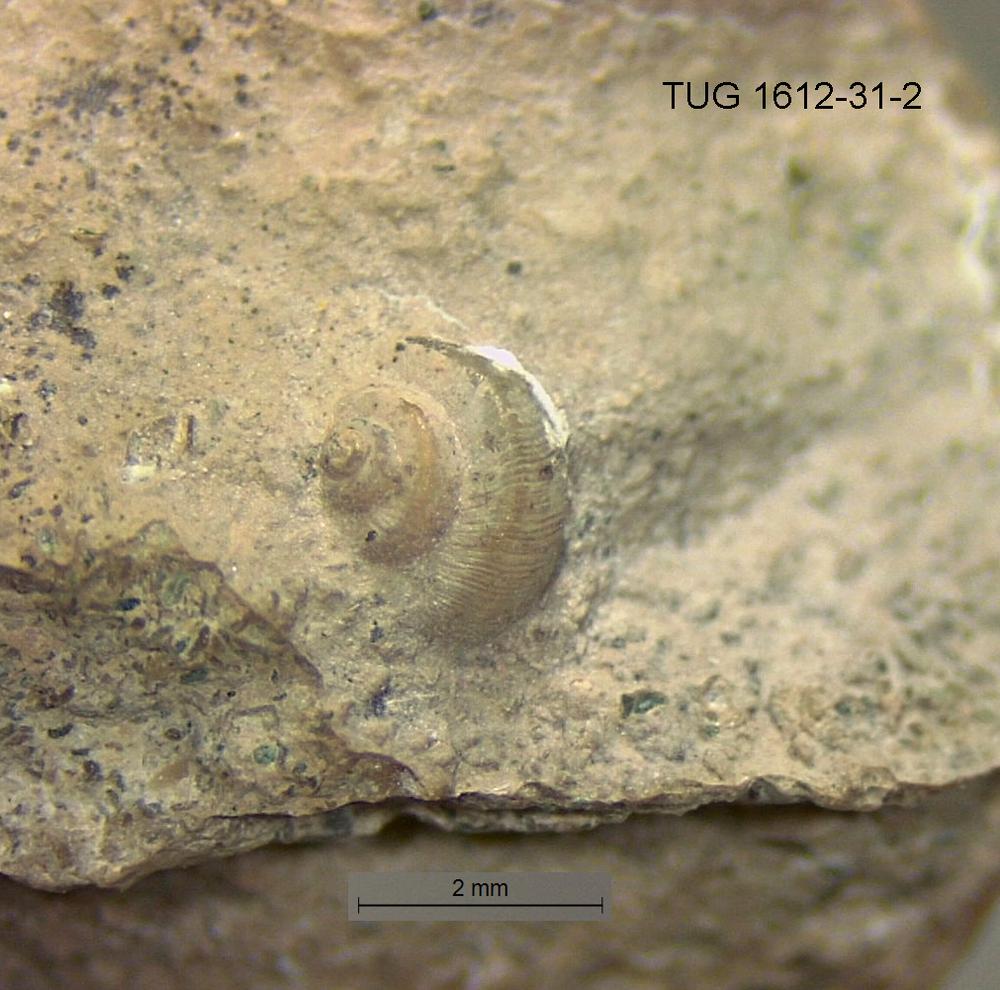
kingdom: Animalia
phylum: Mollusca
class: Gastropoda
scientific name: Gastropoda
